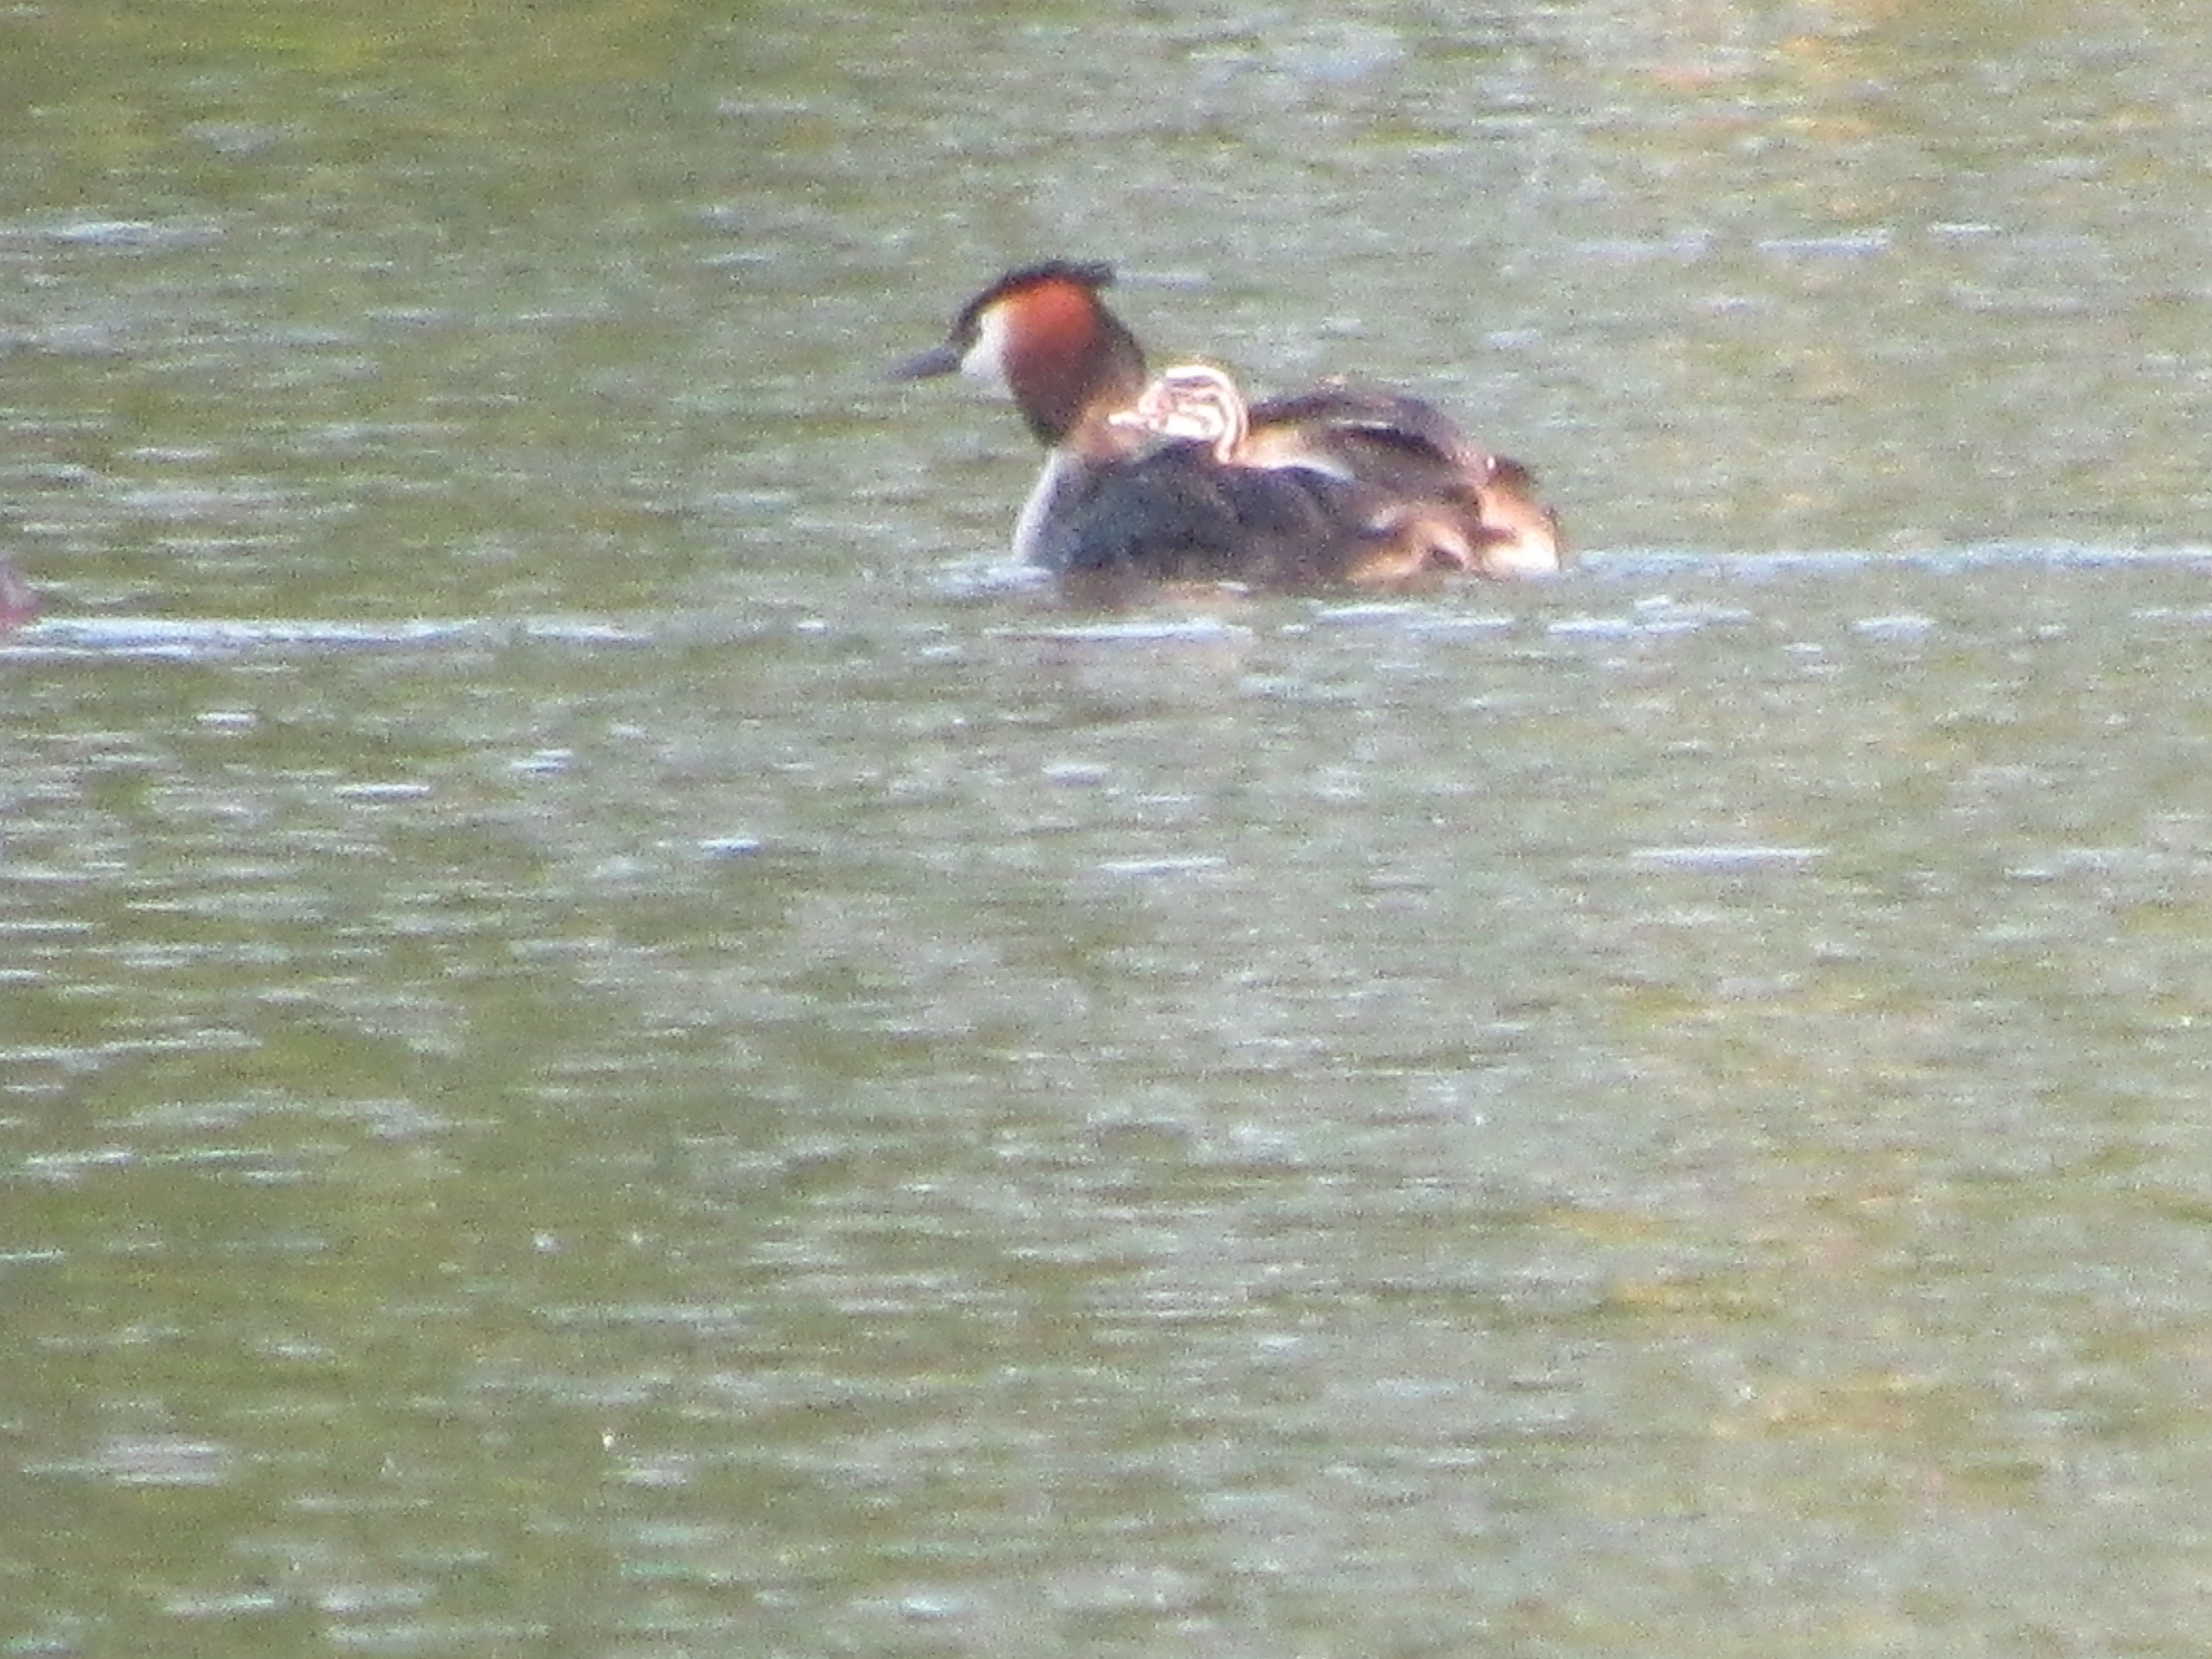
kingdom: Animalia
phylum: Chordata
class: Aves
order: Podicipediformes
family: Podicipedidae
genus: Podiceps
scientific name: Podiceps cristatus
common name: Toppet lappedykker
